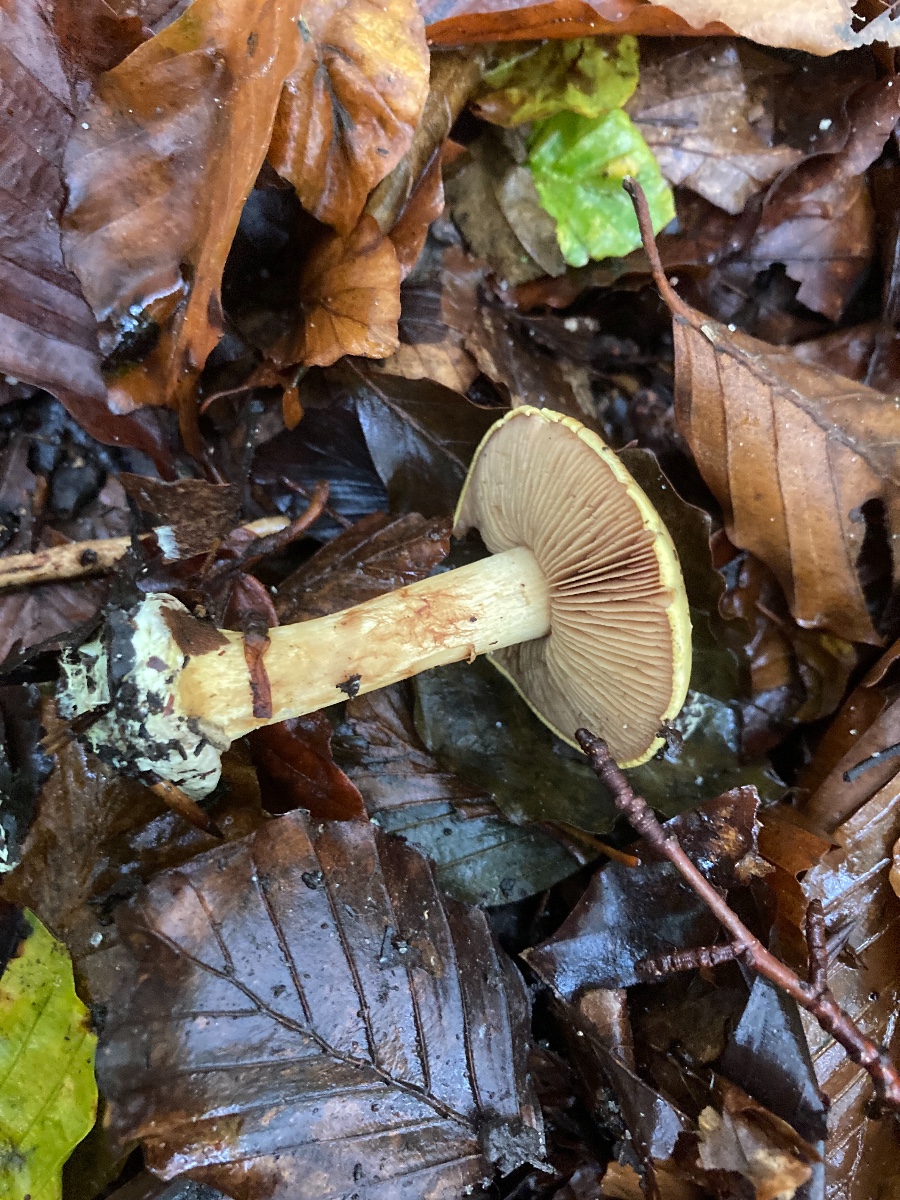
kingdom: Fungi
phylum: Basidiomycota
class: Agaricomycetes
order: Agaricales
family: Cortinariaceae
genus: Calonarius
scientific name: Calonarius fulvocitrinus
